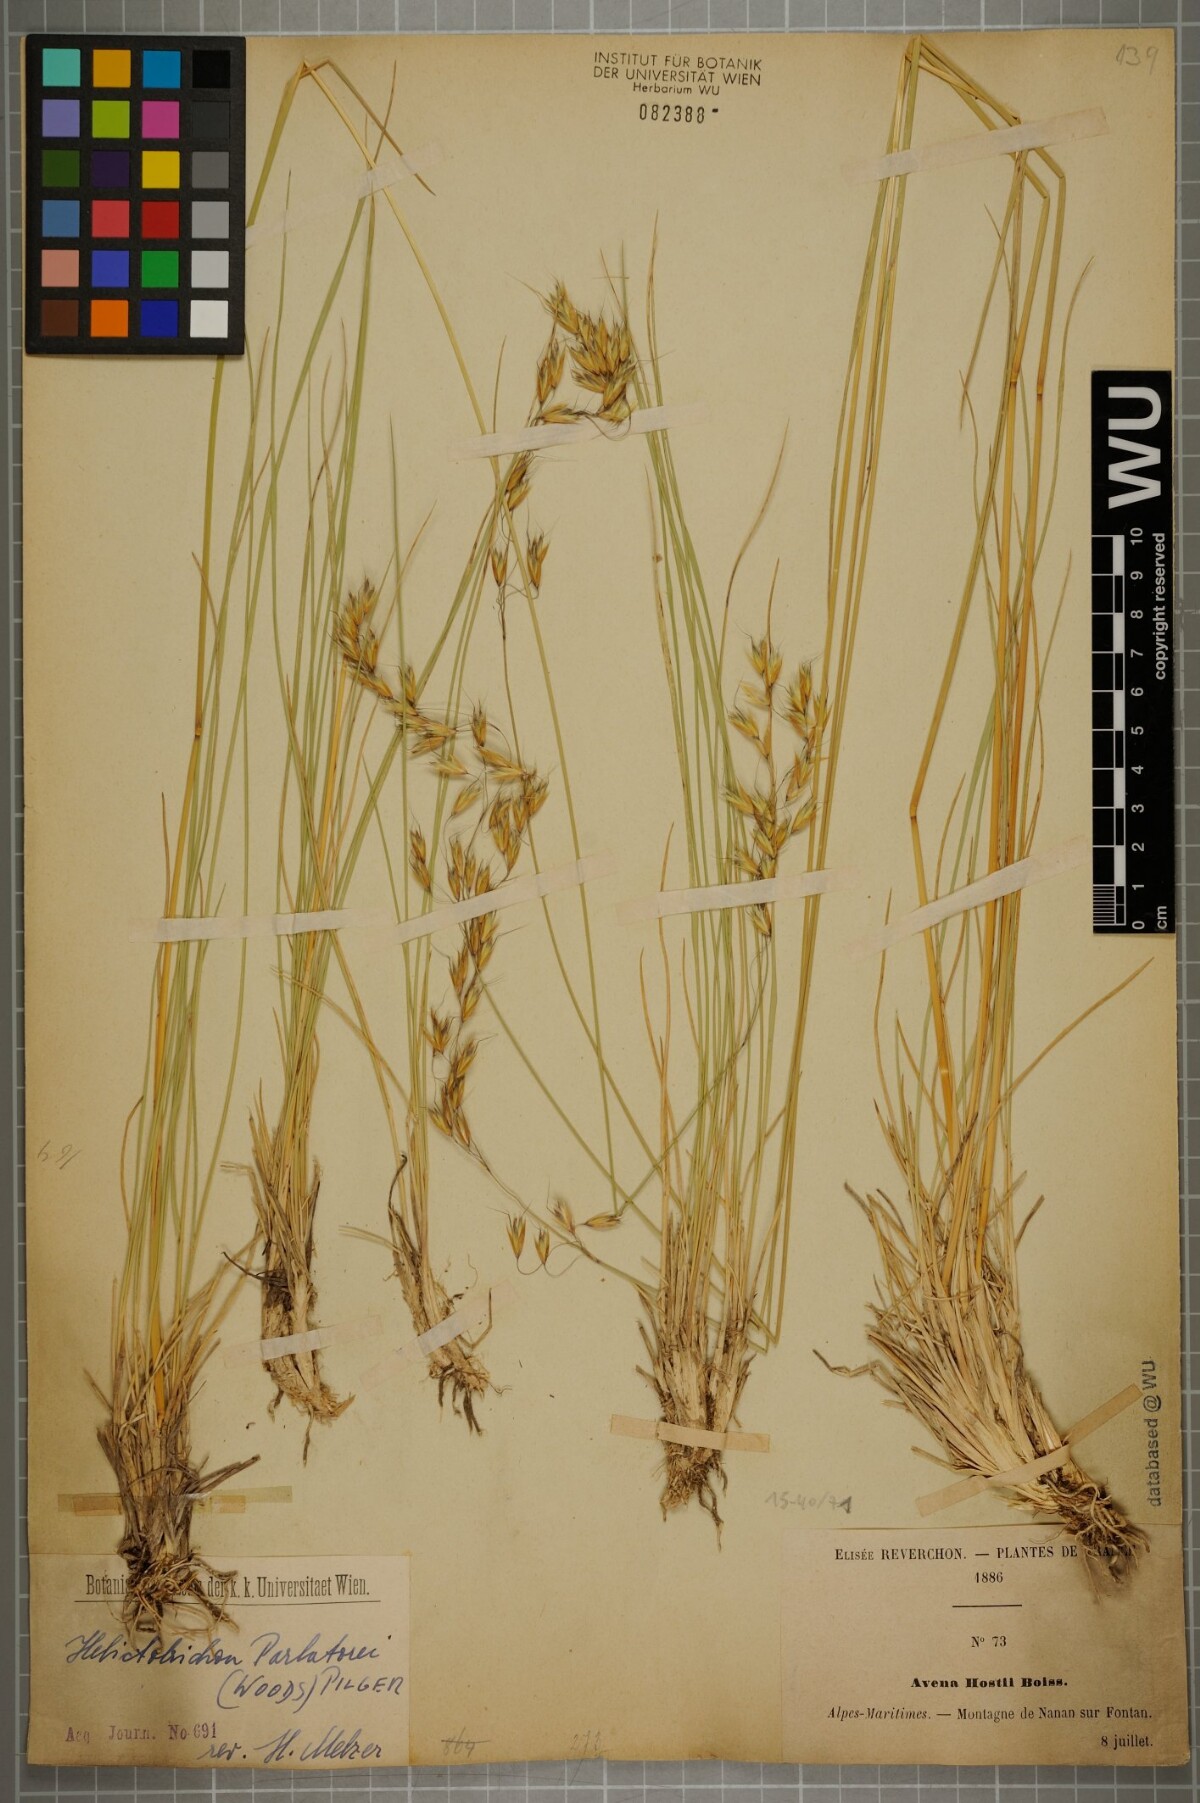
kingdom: Plantae
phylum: Tracheophyta
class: Liliopsida
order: Poales
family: Poaceae
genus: Helictotrichon
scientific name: Helictotrichon parlatorei
